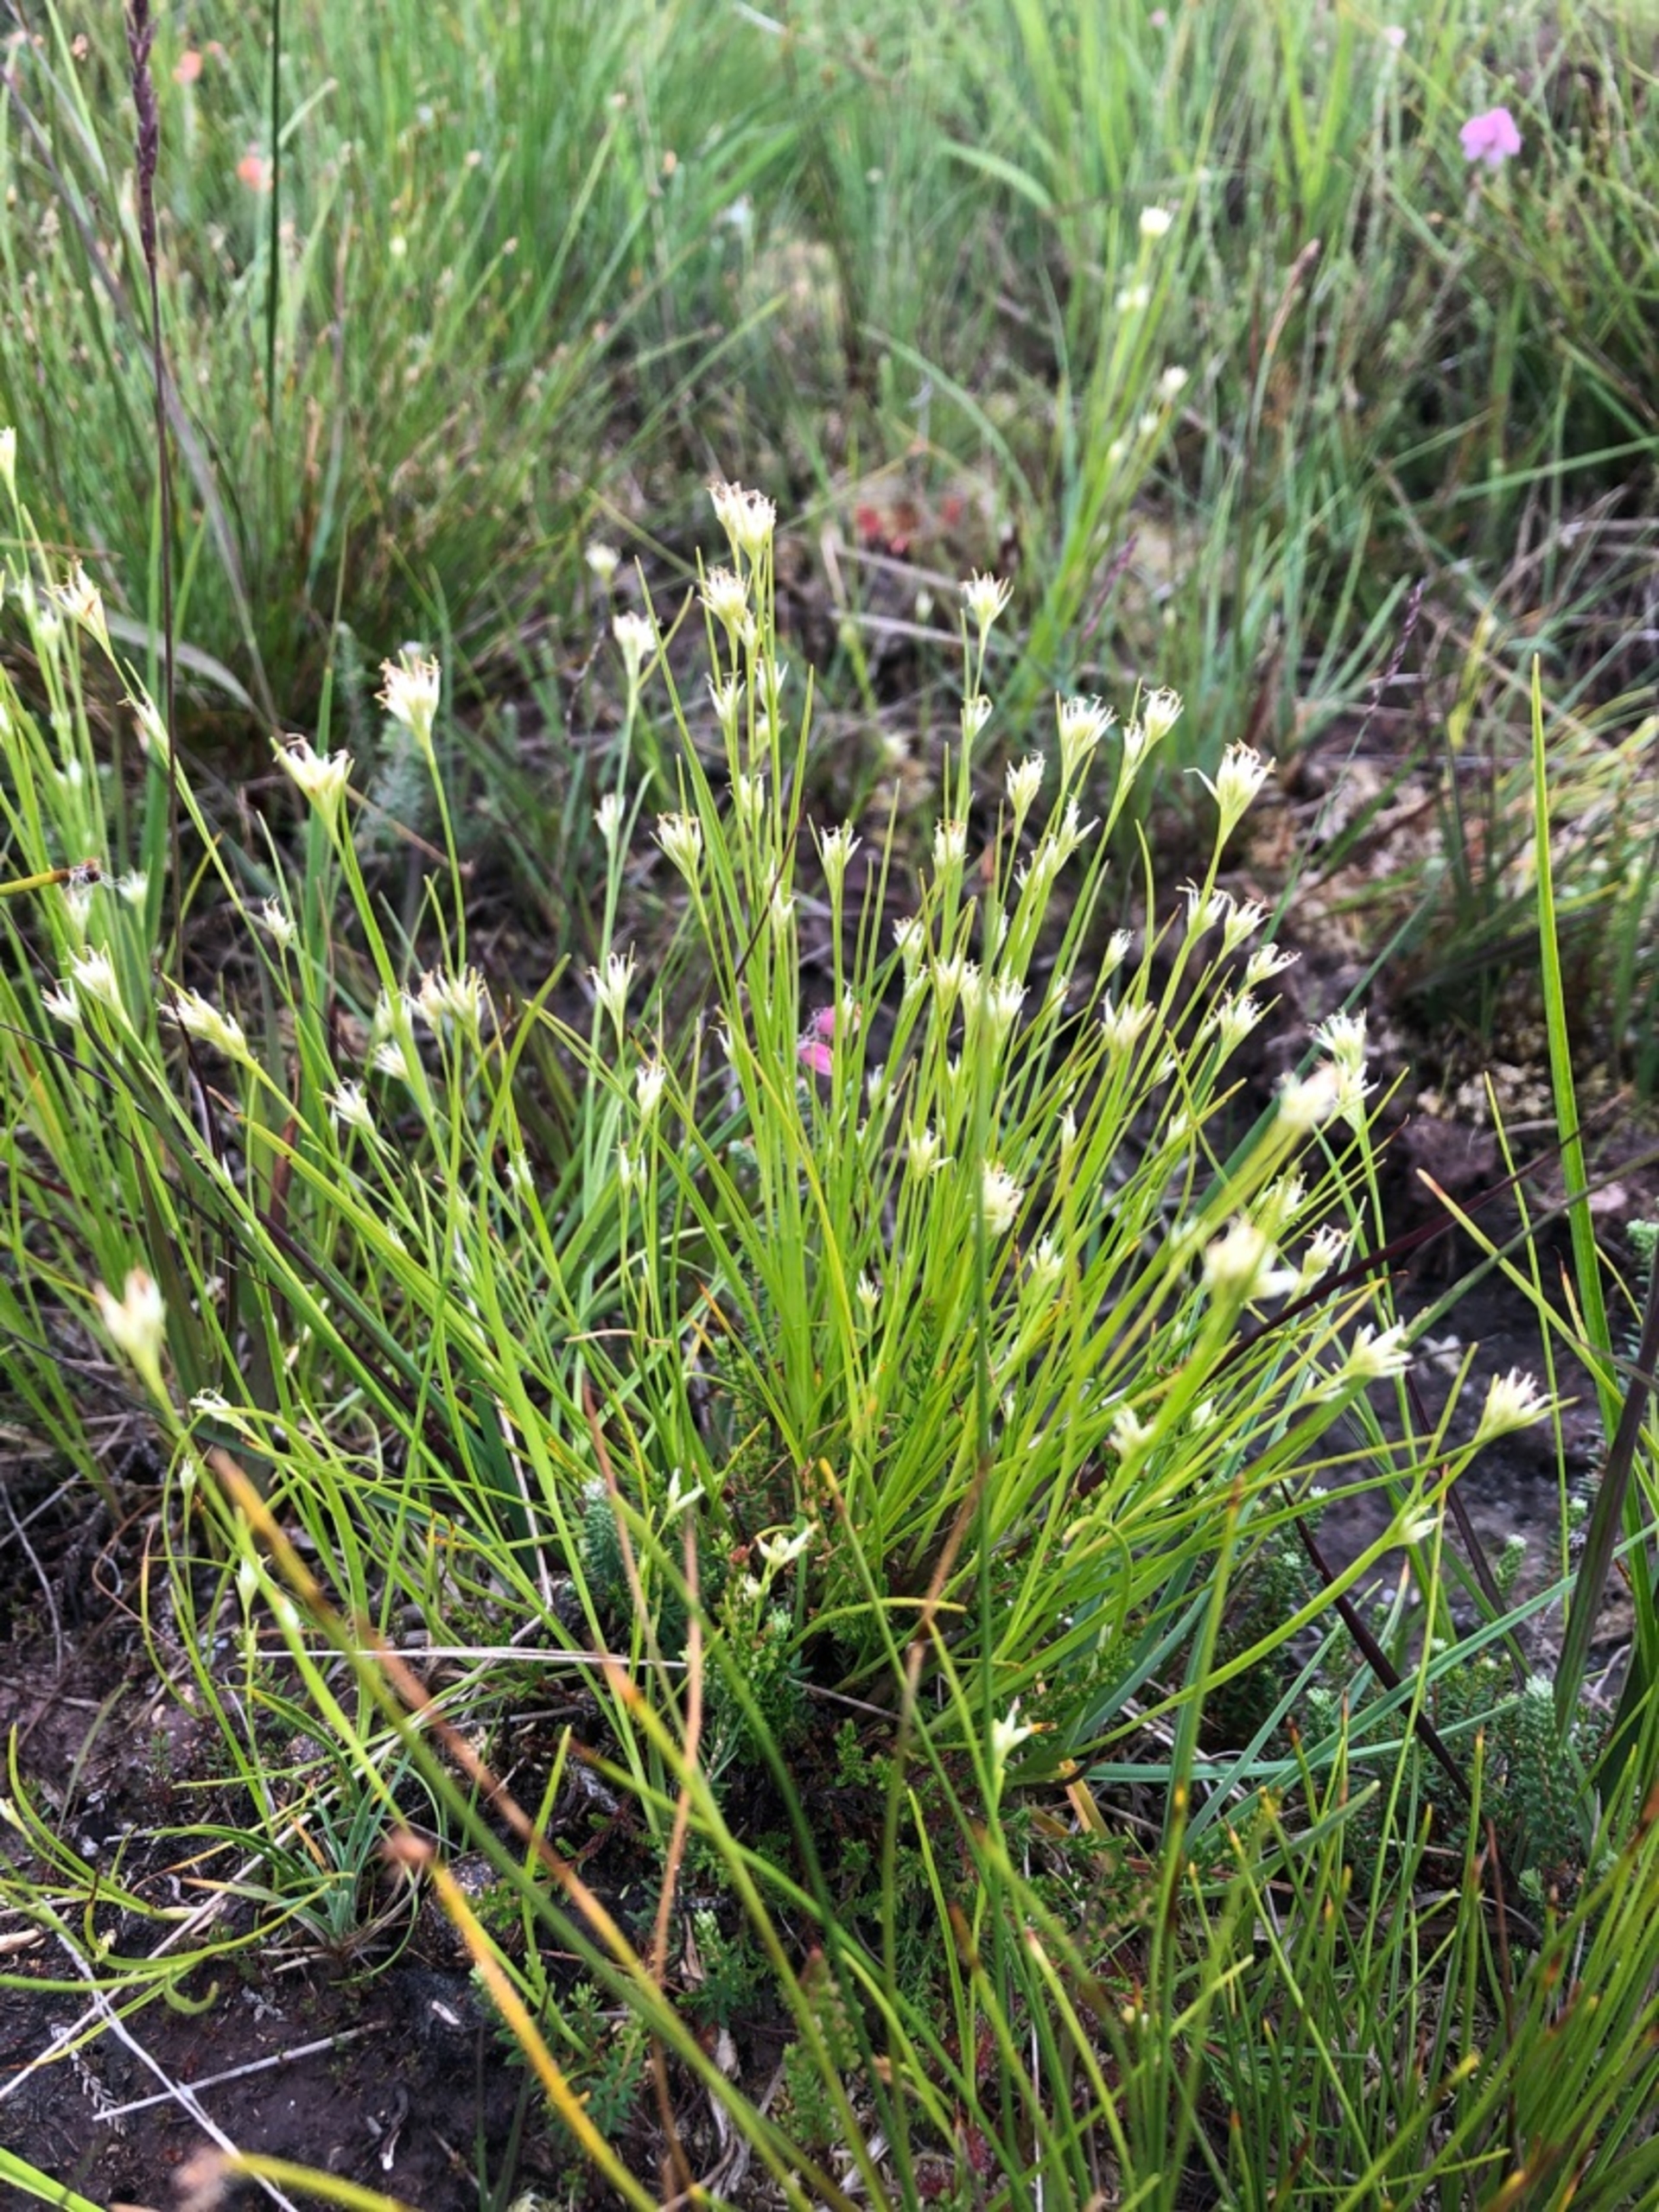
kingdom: Plantae
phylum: Tracheophyta
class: Liliopsida
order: Poales
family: Cyperaceae
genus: Rhynchospora
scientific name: Rhynchospora alba
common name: Hvid næbfrø
